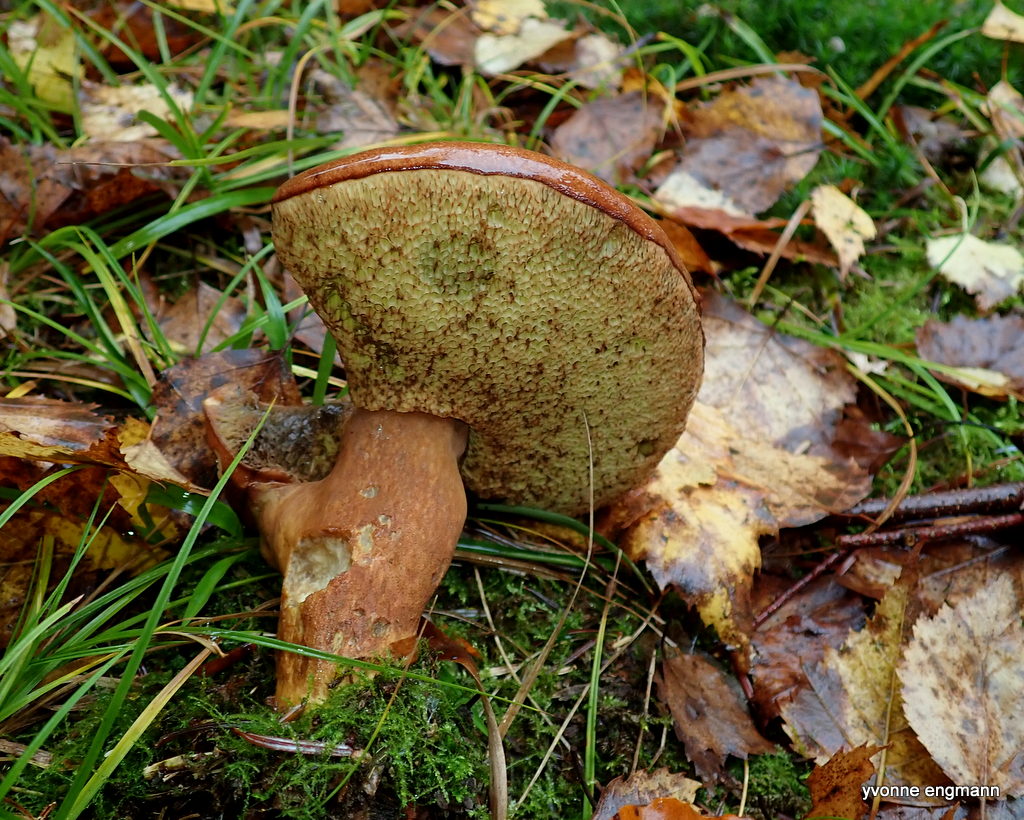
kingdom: Fungi
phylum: Basidiomycota
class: Agaricomycetes
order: Boletales
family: Boletaceae
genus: Imleria
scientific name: Imleria badia
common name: brunstokket rørhat
